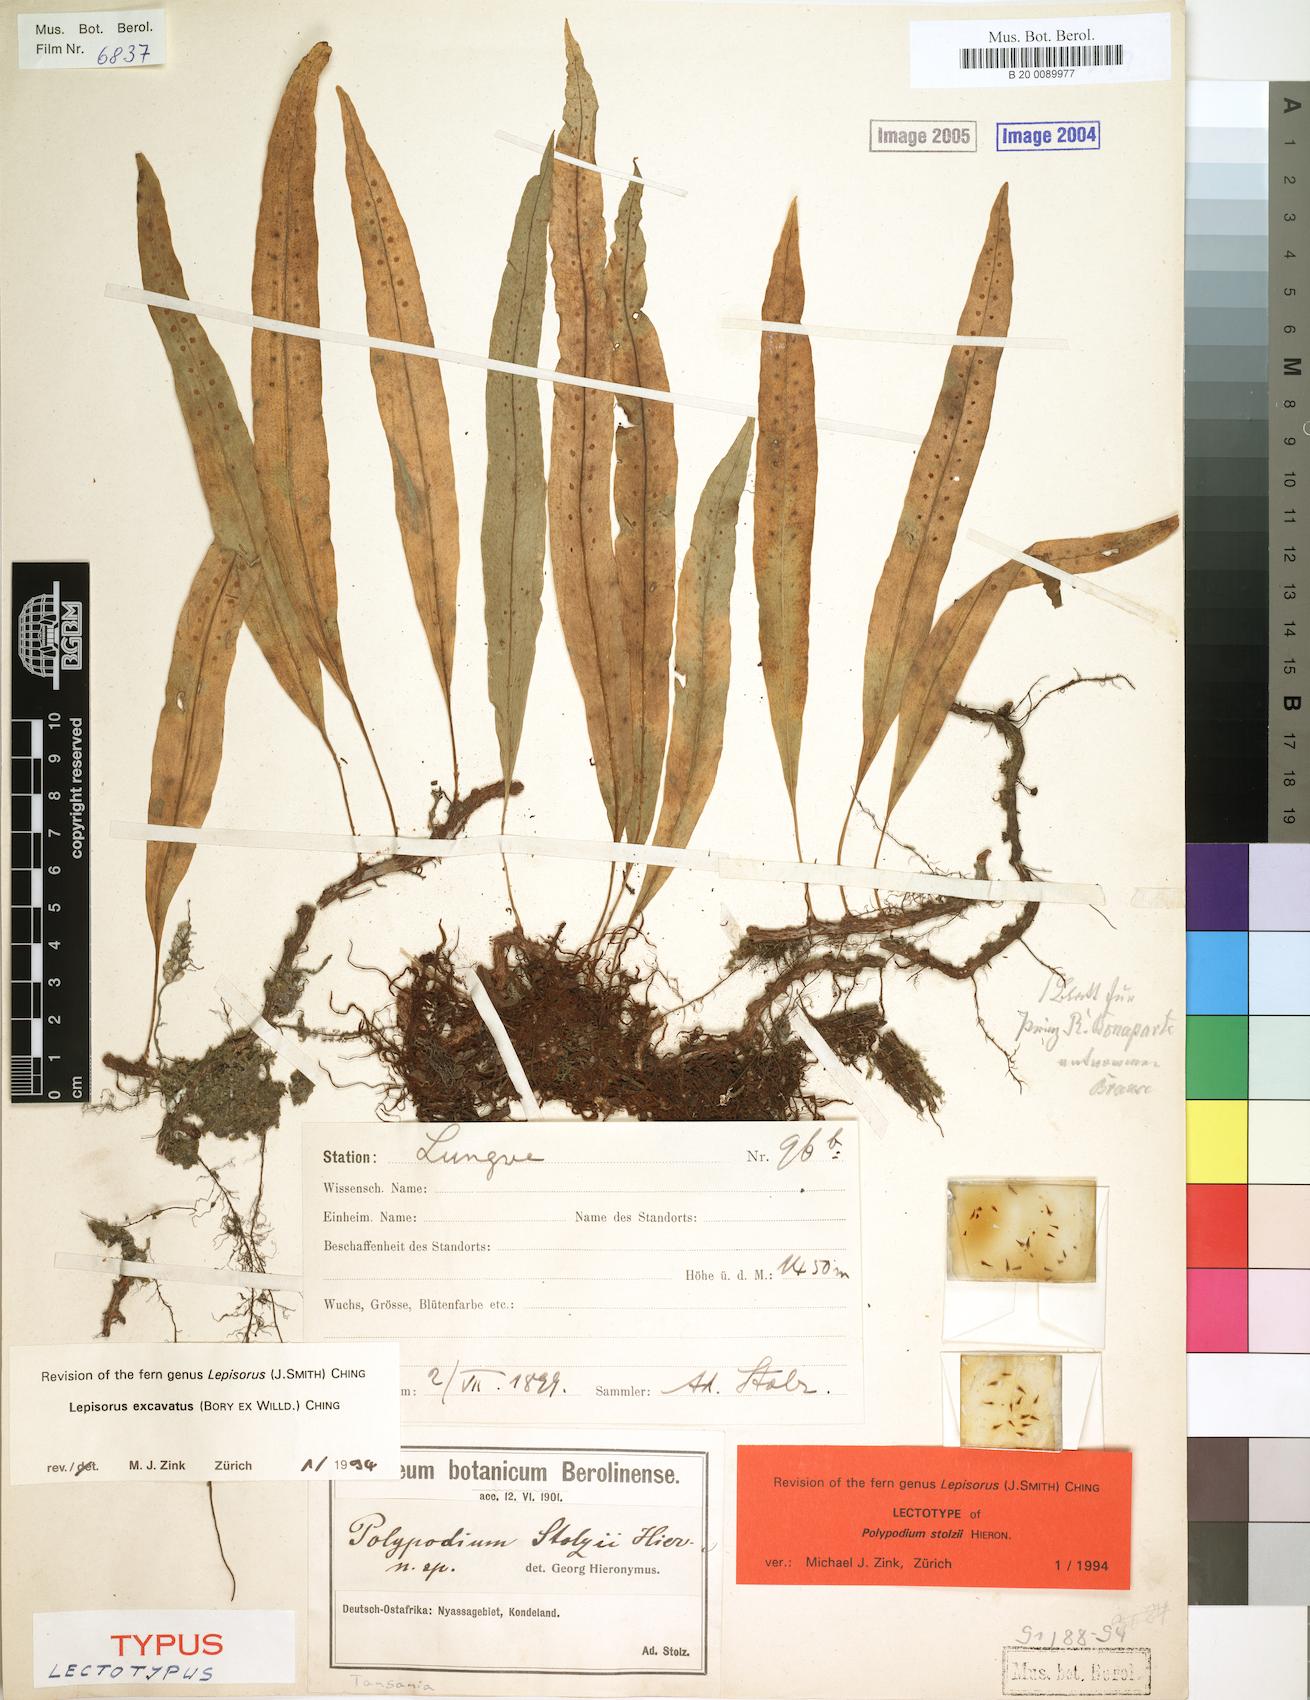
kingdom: Plantae
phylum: Tracheophyta
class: Polypodiopsida
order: Polypodiales
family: Polypodiaceae
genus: Lepisorus
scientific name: Lepisorus excavatus
